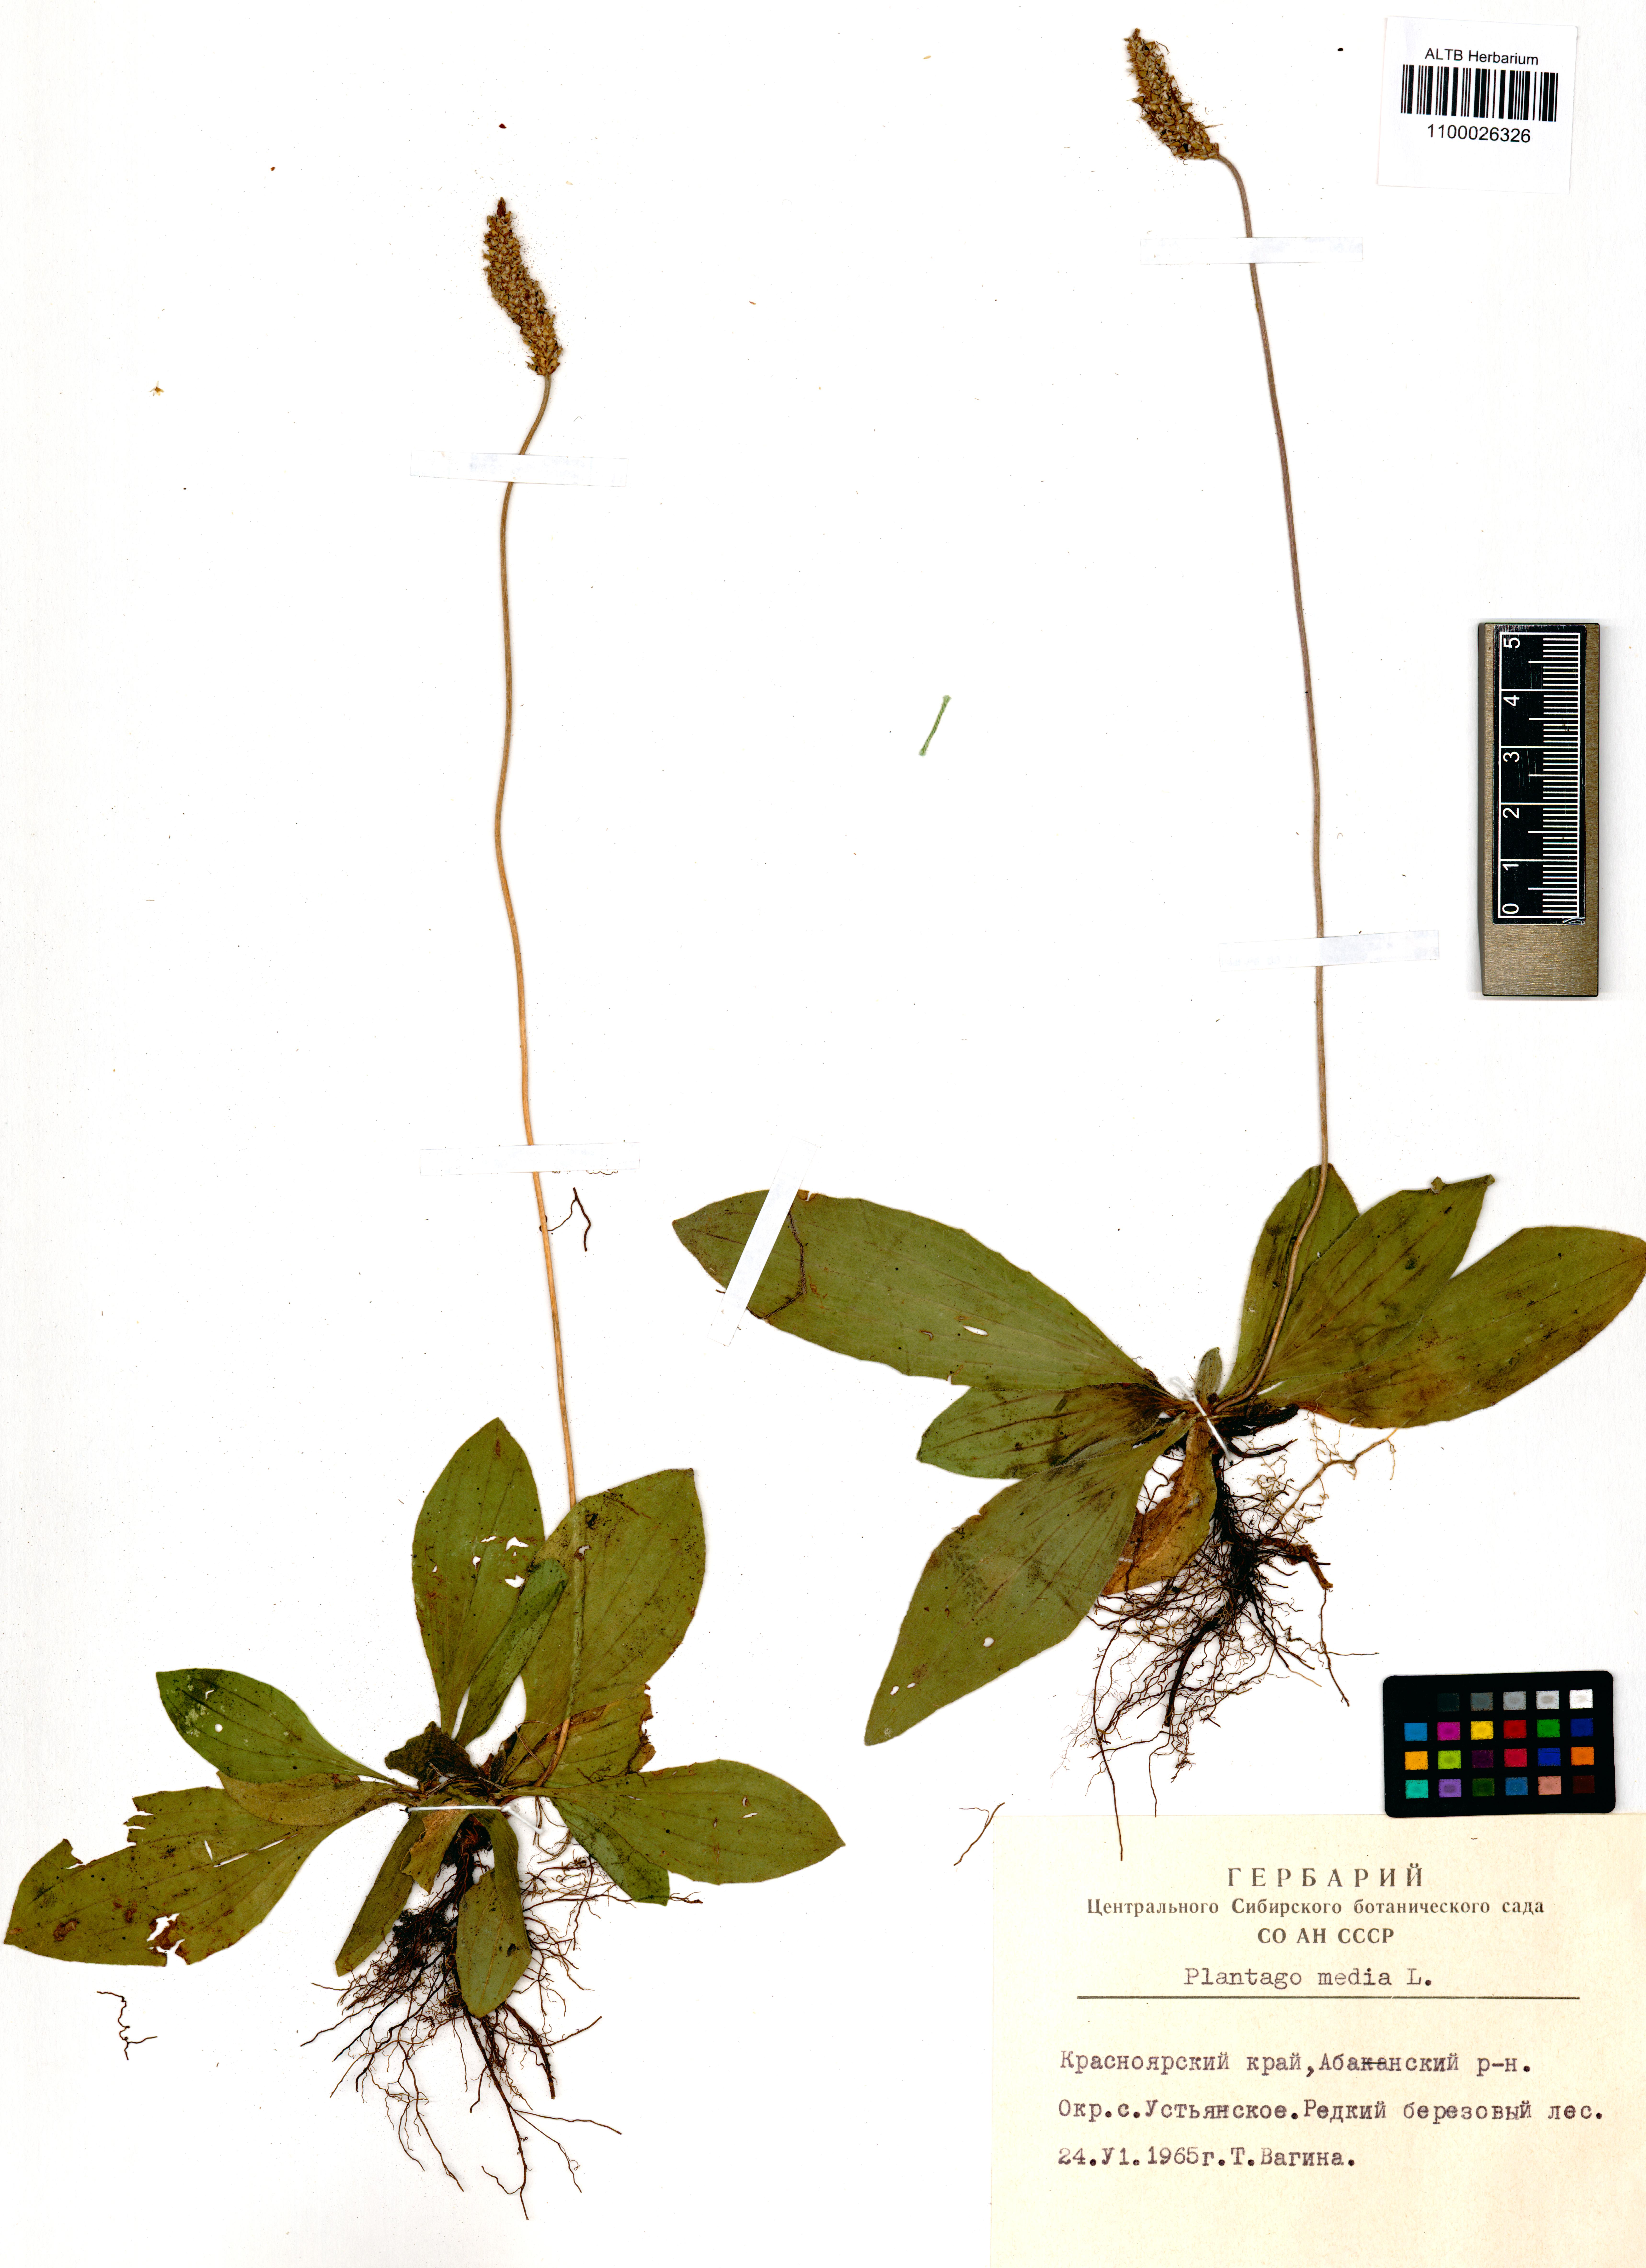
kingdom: Plantae
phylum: Tracheophyta
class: Magnoliopsida
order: Lamiales
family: Plantaginaceae
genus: Plantago
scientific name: Plantago media
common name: Hoary plantain
